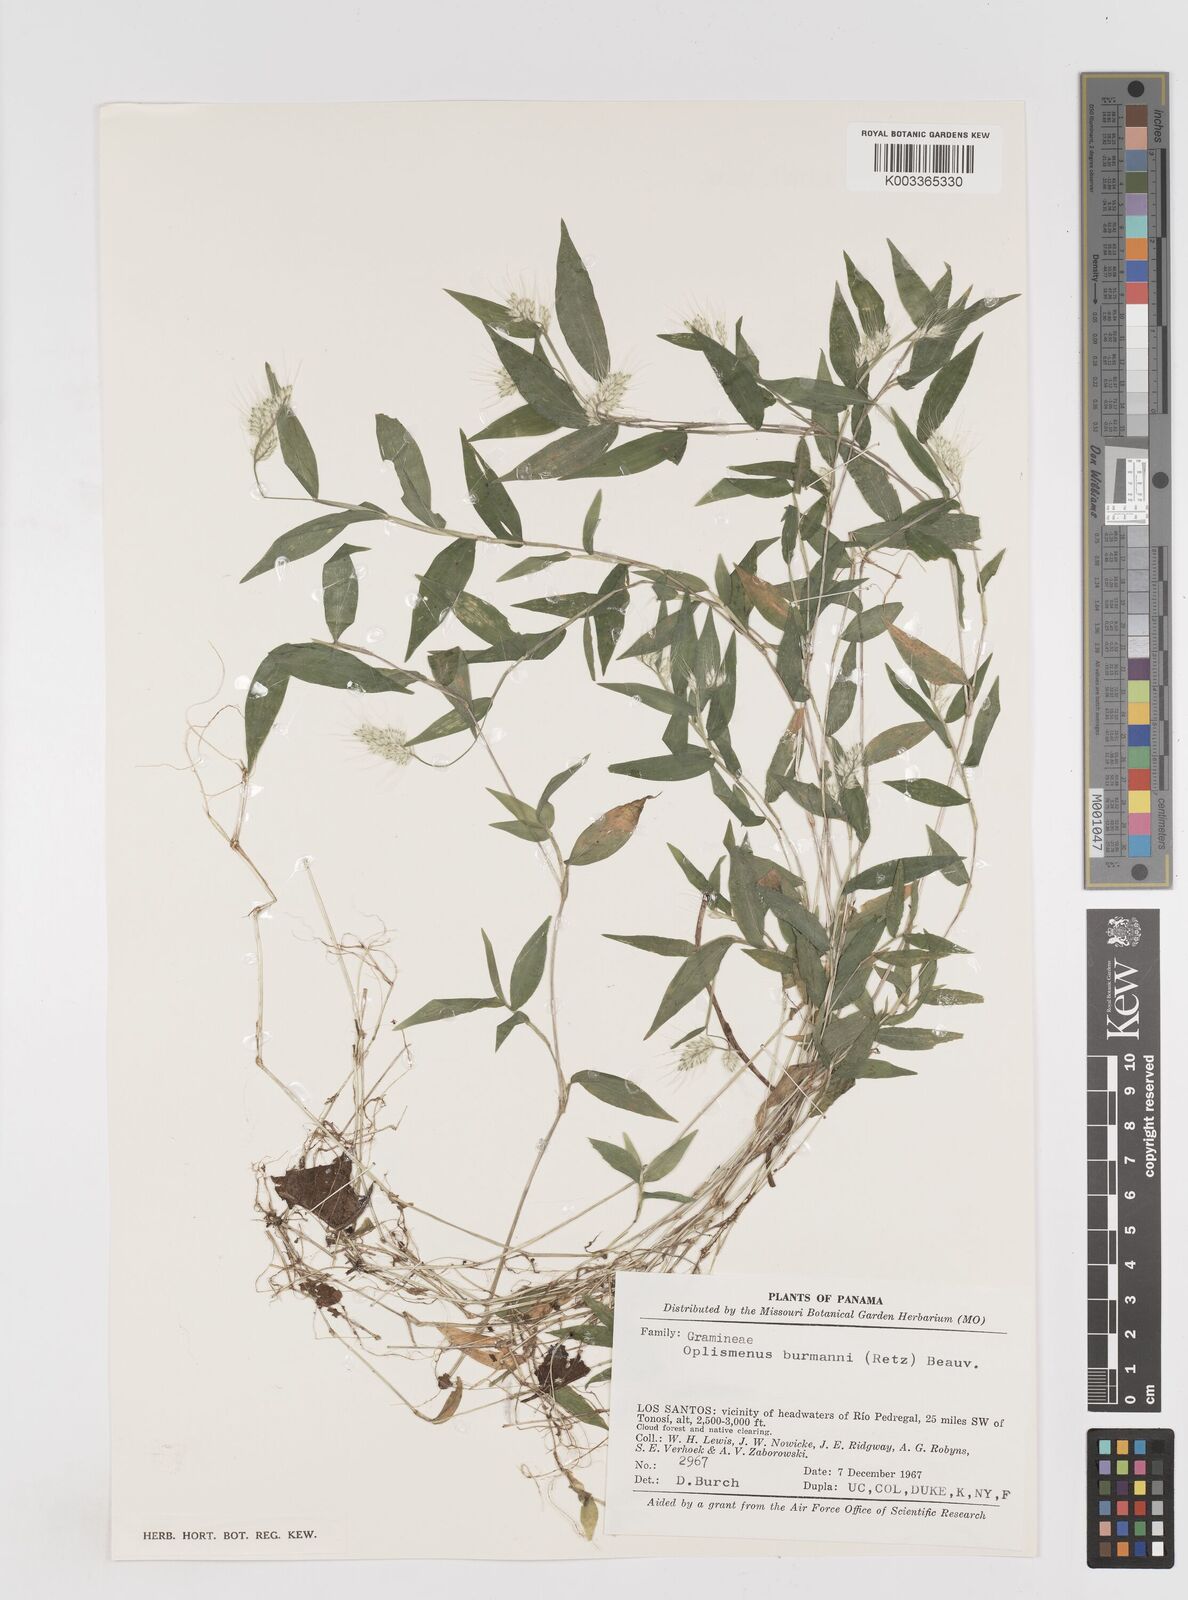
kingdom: Plantae
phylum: Tracheophyta
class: Liliopsida
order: Poales
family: Poaceae
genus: Oplismenus
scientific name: Oplismenus burmanni
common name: Burmann's basketgrass
